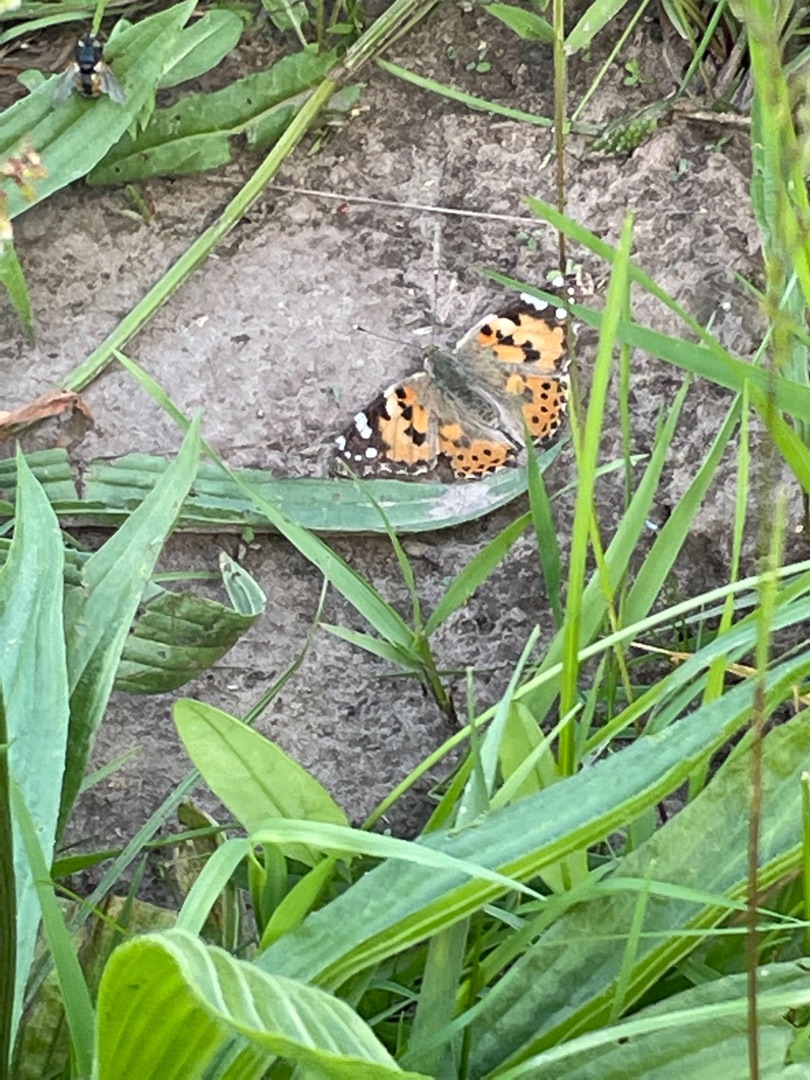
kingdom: Animalia
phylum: Arthropoda
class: Insecta
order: Lepidoptera
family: Nymphalidae
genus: Vanessa
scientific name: Vanessa cardui
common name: Tidselsommerfugl
